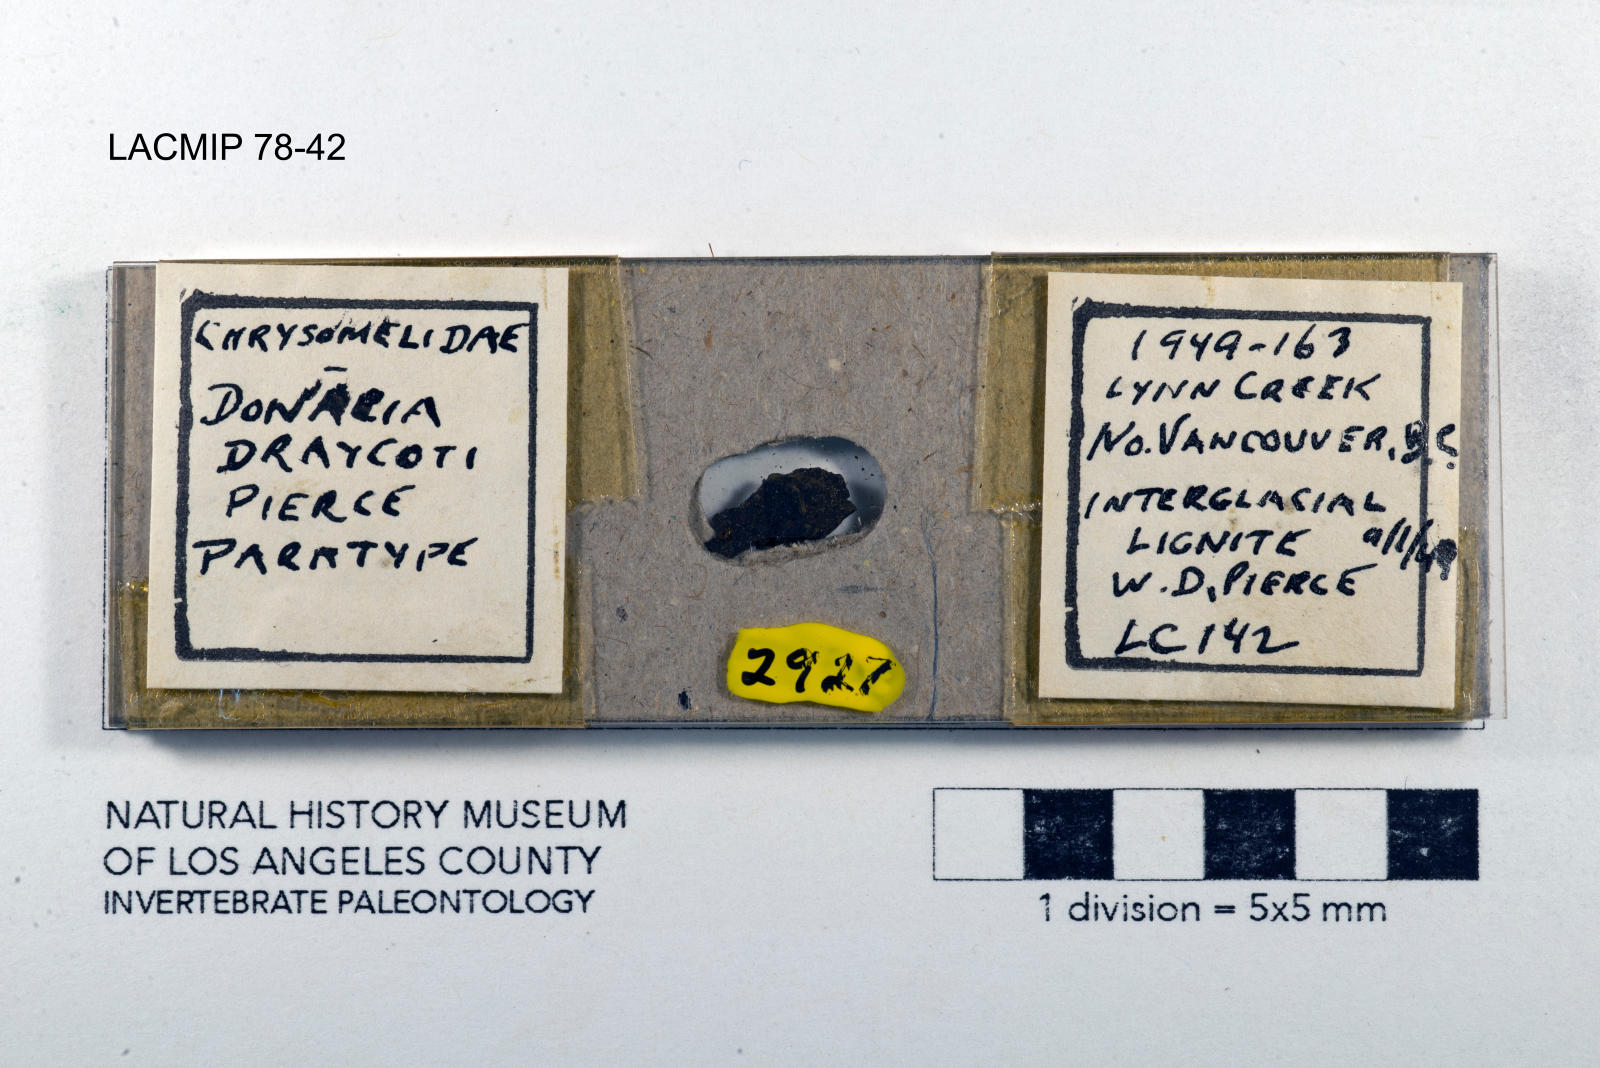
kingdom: Animalia
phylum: Arthropoda
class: Insecta
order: Coleoptera
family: Chrysomelidae
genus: Donacia
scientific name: Donacia draycoti
